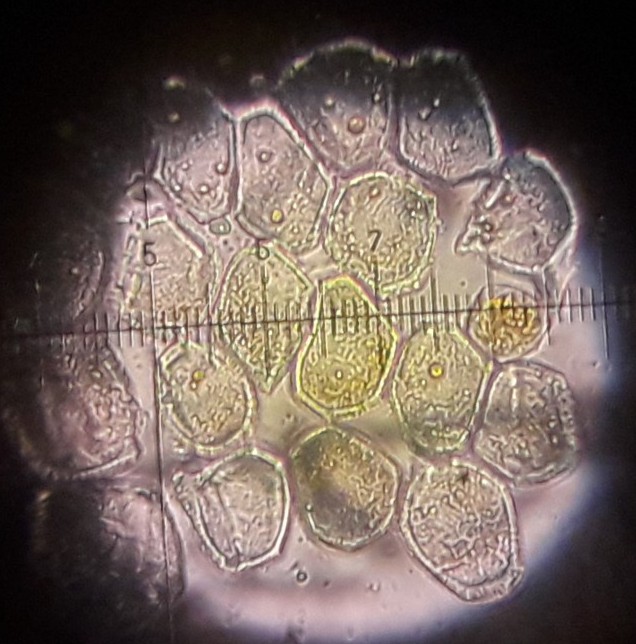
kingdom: Fungi
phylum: Basidiomycota
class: Pucciniomycetes
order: Pucciniales
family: Pucciniaceae
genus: Uromyces
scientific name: Uromyces dactylidis
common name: ranunkel-encellerust
